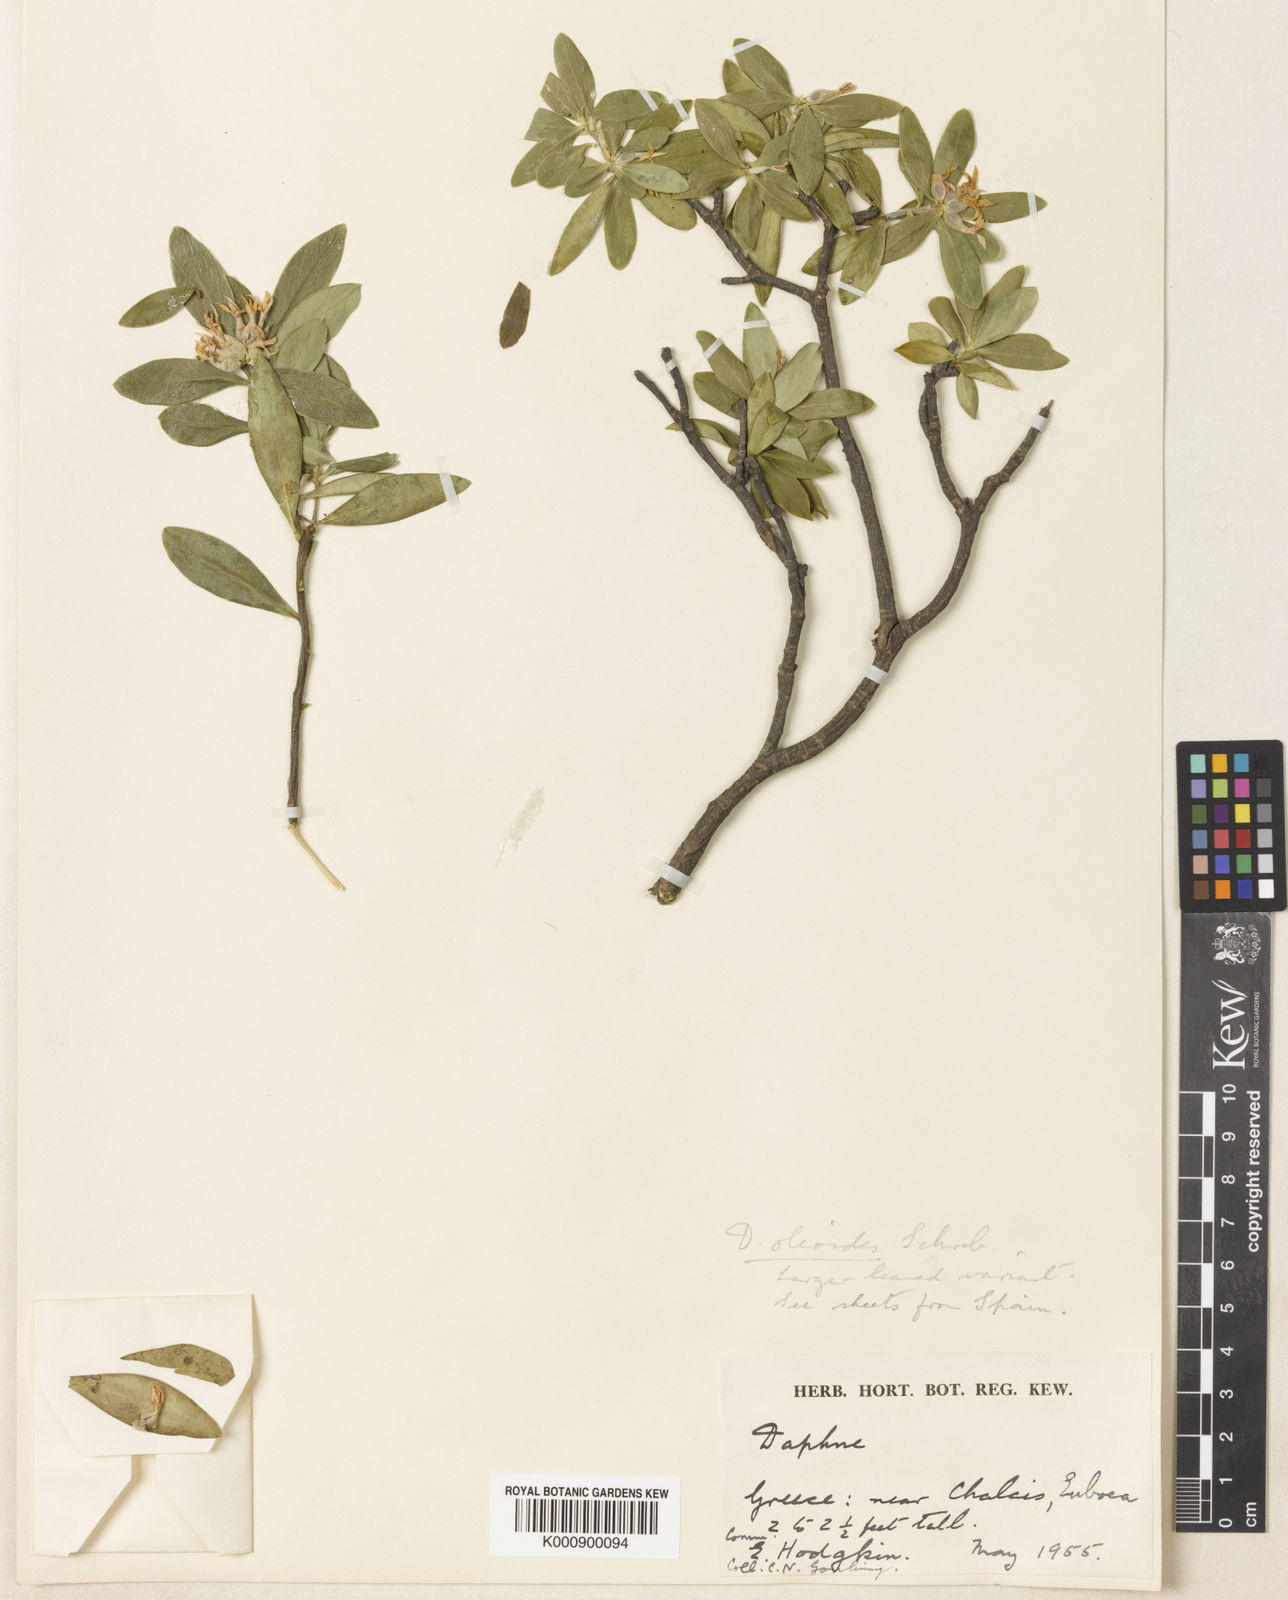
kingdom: Plantae
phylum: Tracheophyta
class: Magnoliopsida
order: Malvales
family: Thymelaeaceae
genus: Daphne
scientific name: Daphne oleoides
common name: Spurge-olive
